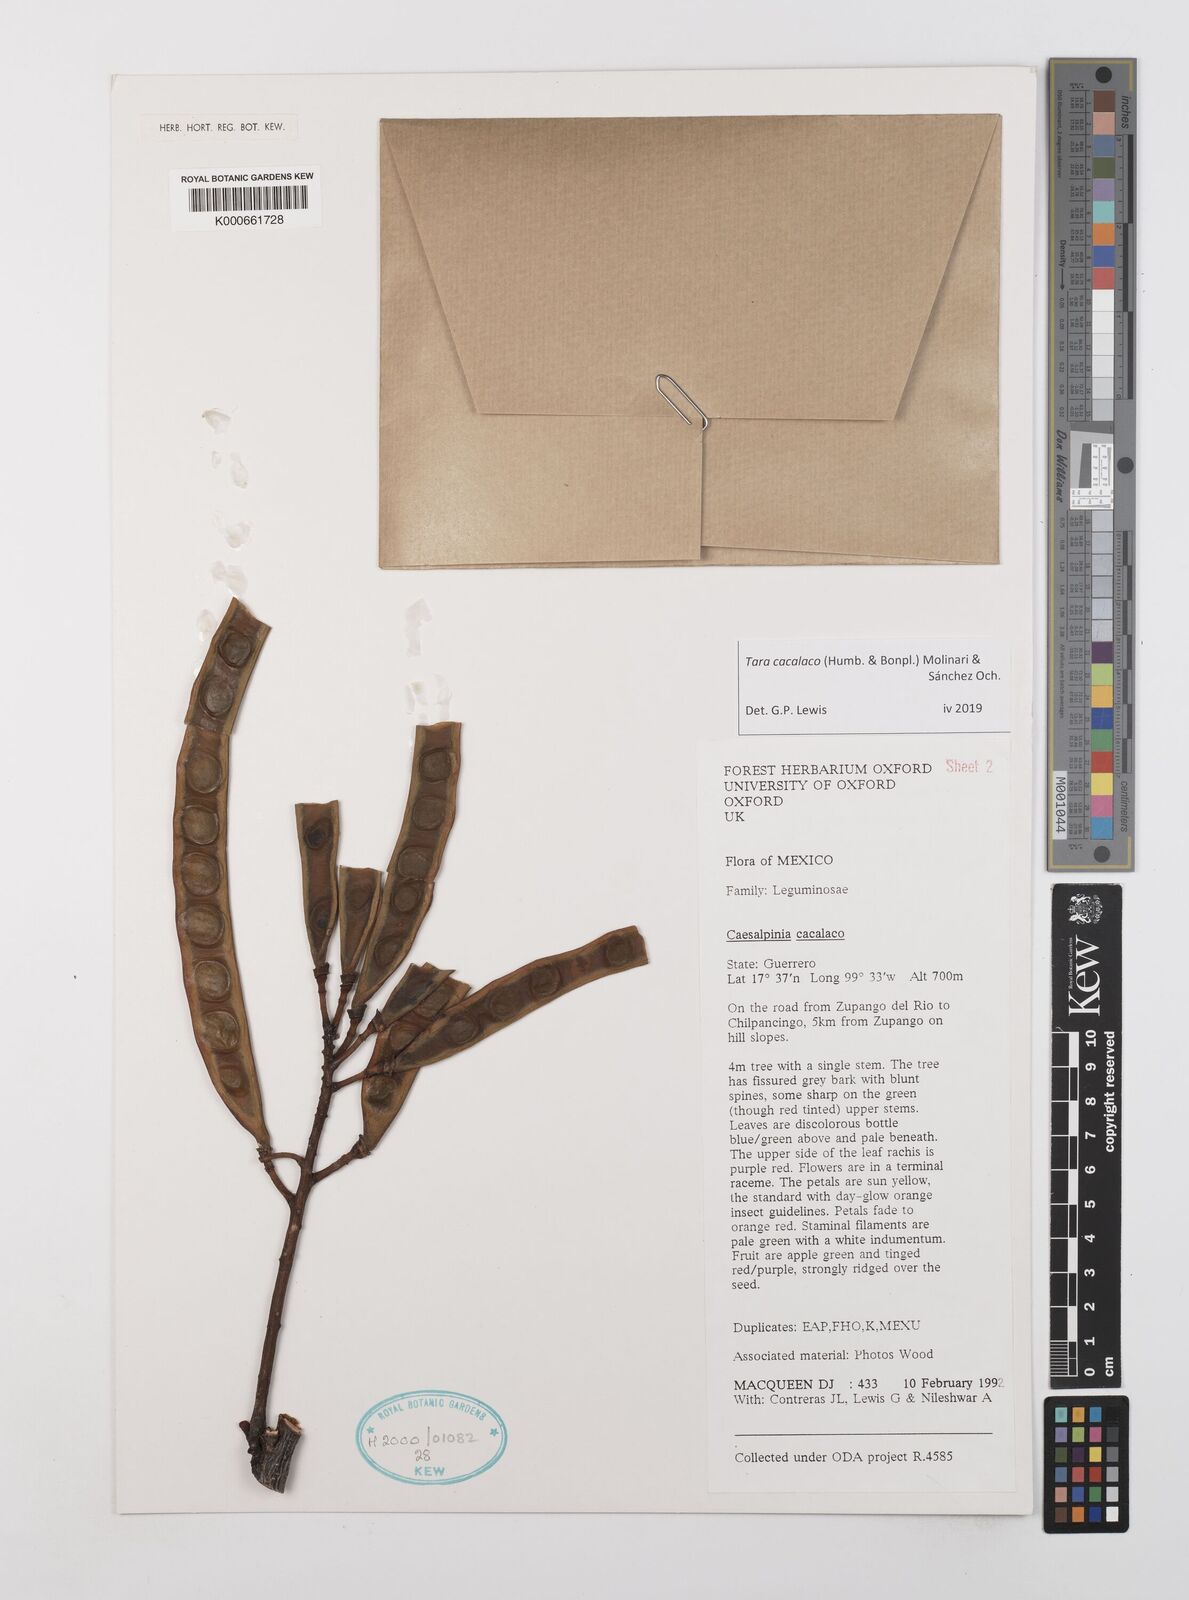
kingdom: Plantae
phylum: Tracheophyta
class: Magnoliopsida
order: Fabales
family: Fabaceae
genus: Tara
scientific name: Tara cacalaco
